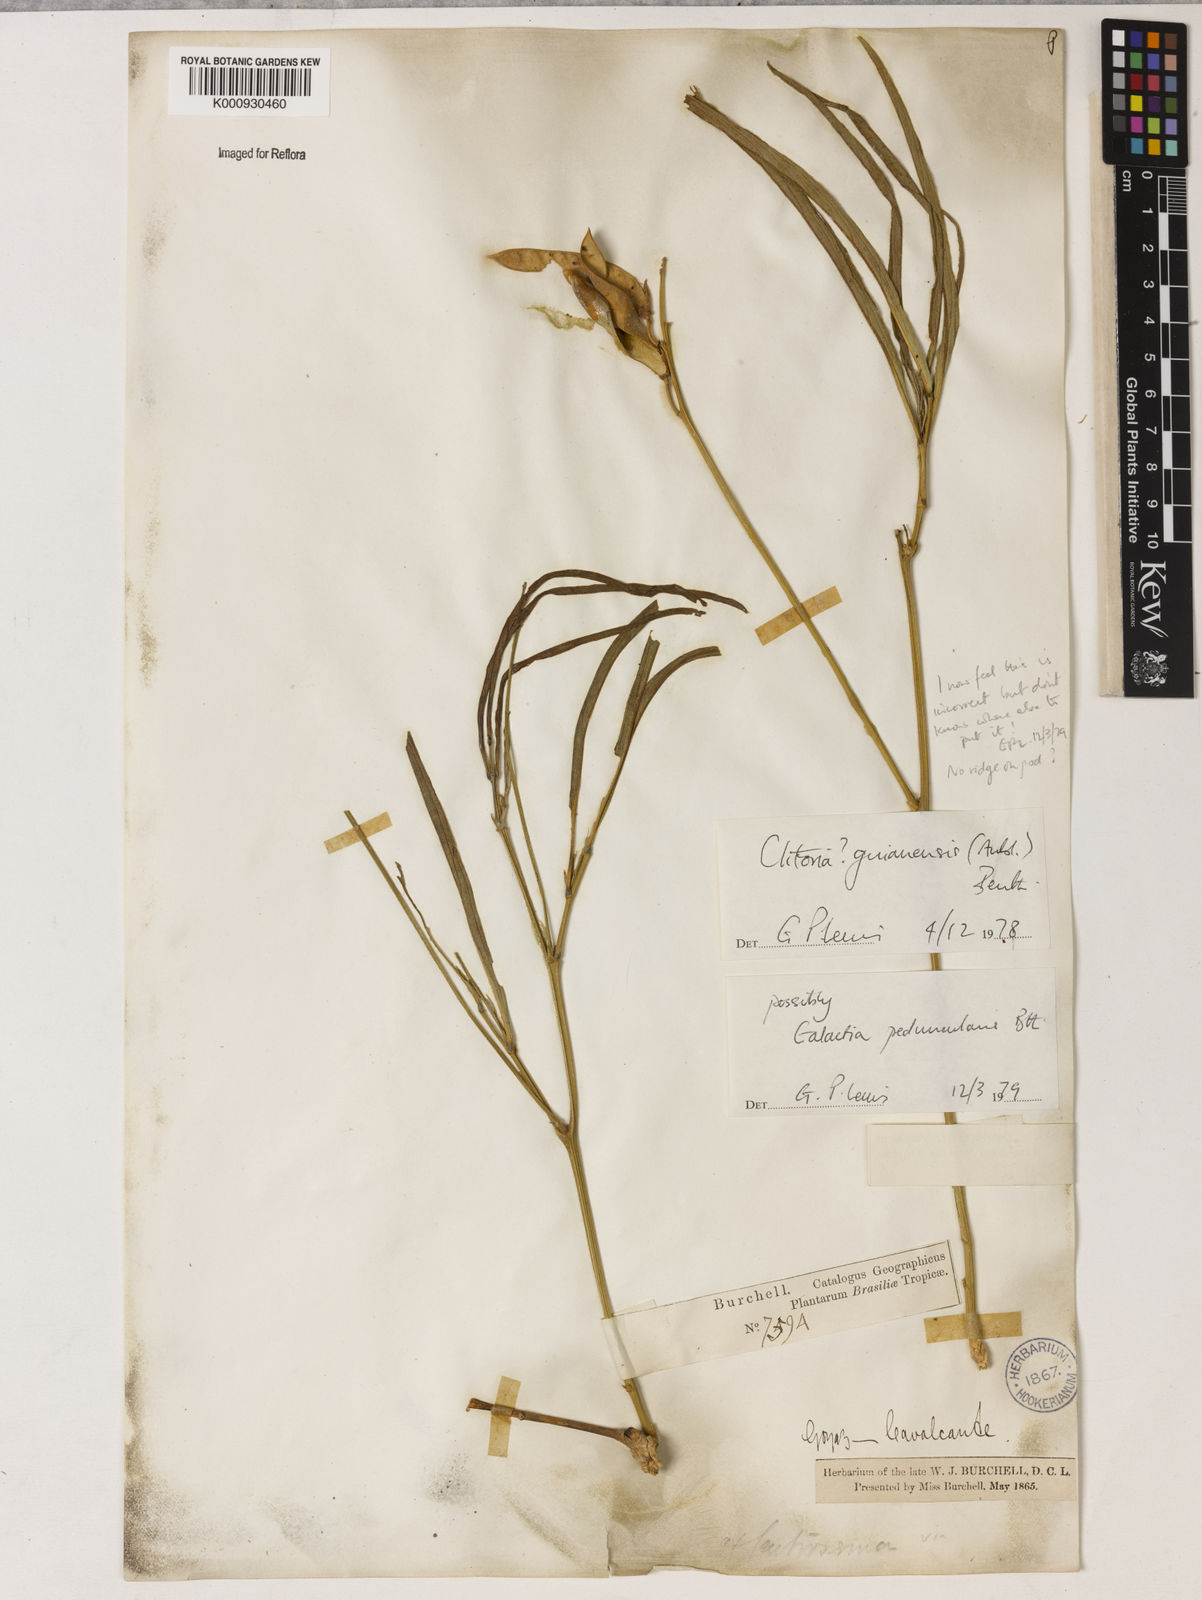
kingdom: Plantae
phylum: Tracheophyta
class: Magnoliopsida
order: Fabales
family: Fabaceae
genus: Galactia
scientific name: Galactia
